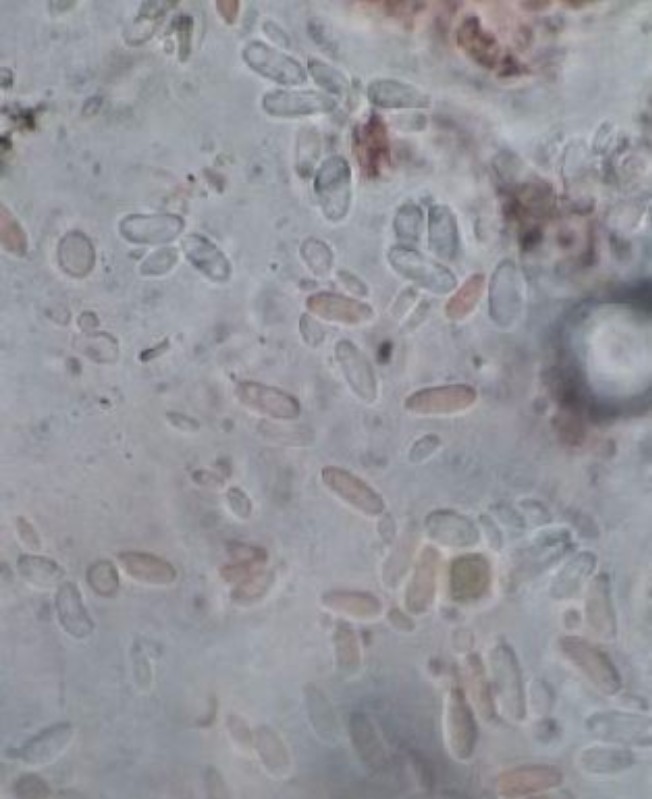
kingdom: Fungi
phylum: Ascomycota
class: Sordariomycetes
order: Amphisphaeriales
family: Pestalotiopsidaceae
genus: Pestalotiopsis
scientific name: Pestalotiopsis
